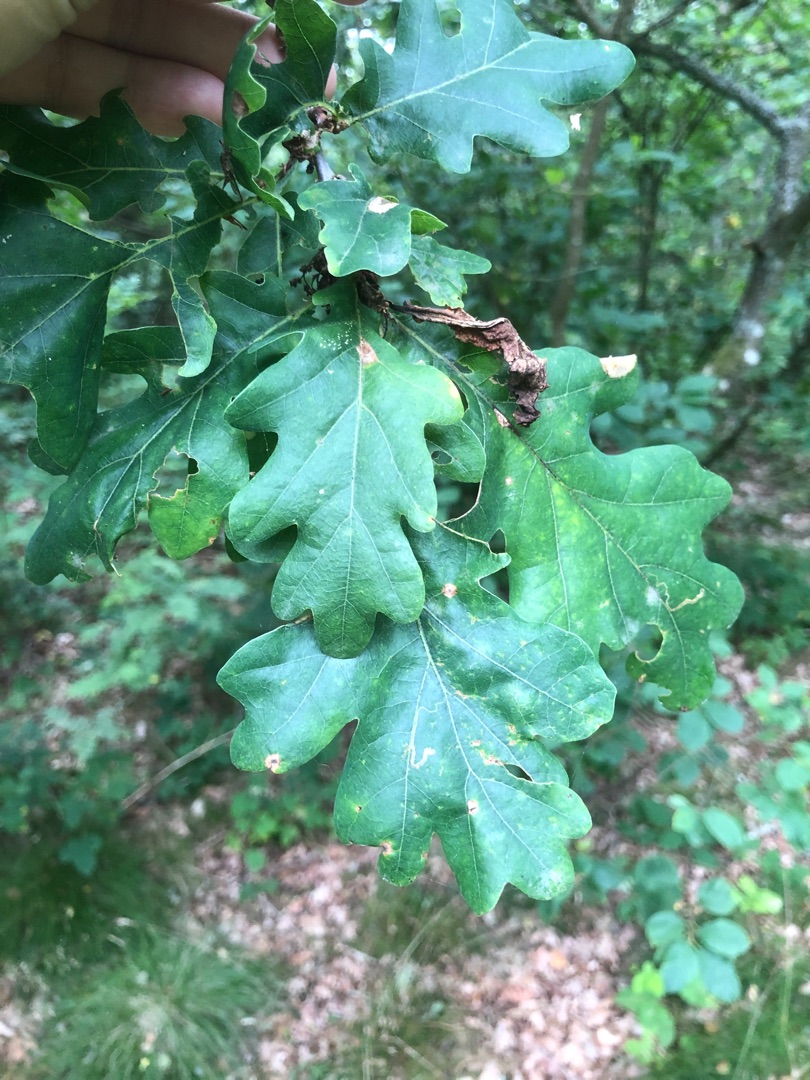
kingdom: Plantae
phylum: Tracheophyta
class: Magnoliopsida
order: Fagales
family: Fagaceae
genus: Quercus
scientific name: Quercus robur
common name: Stilk-eg/almindelig eg
